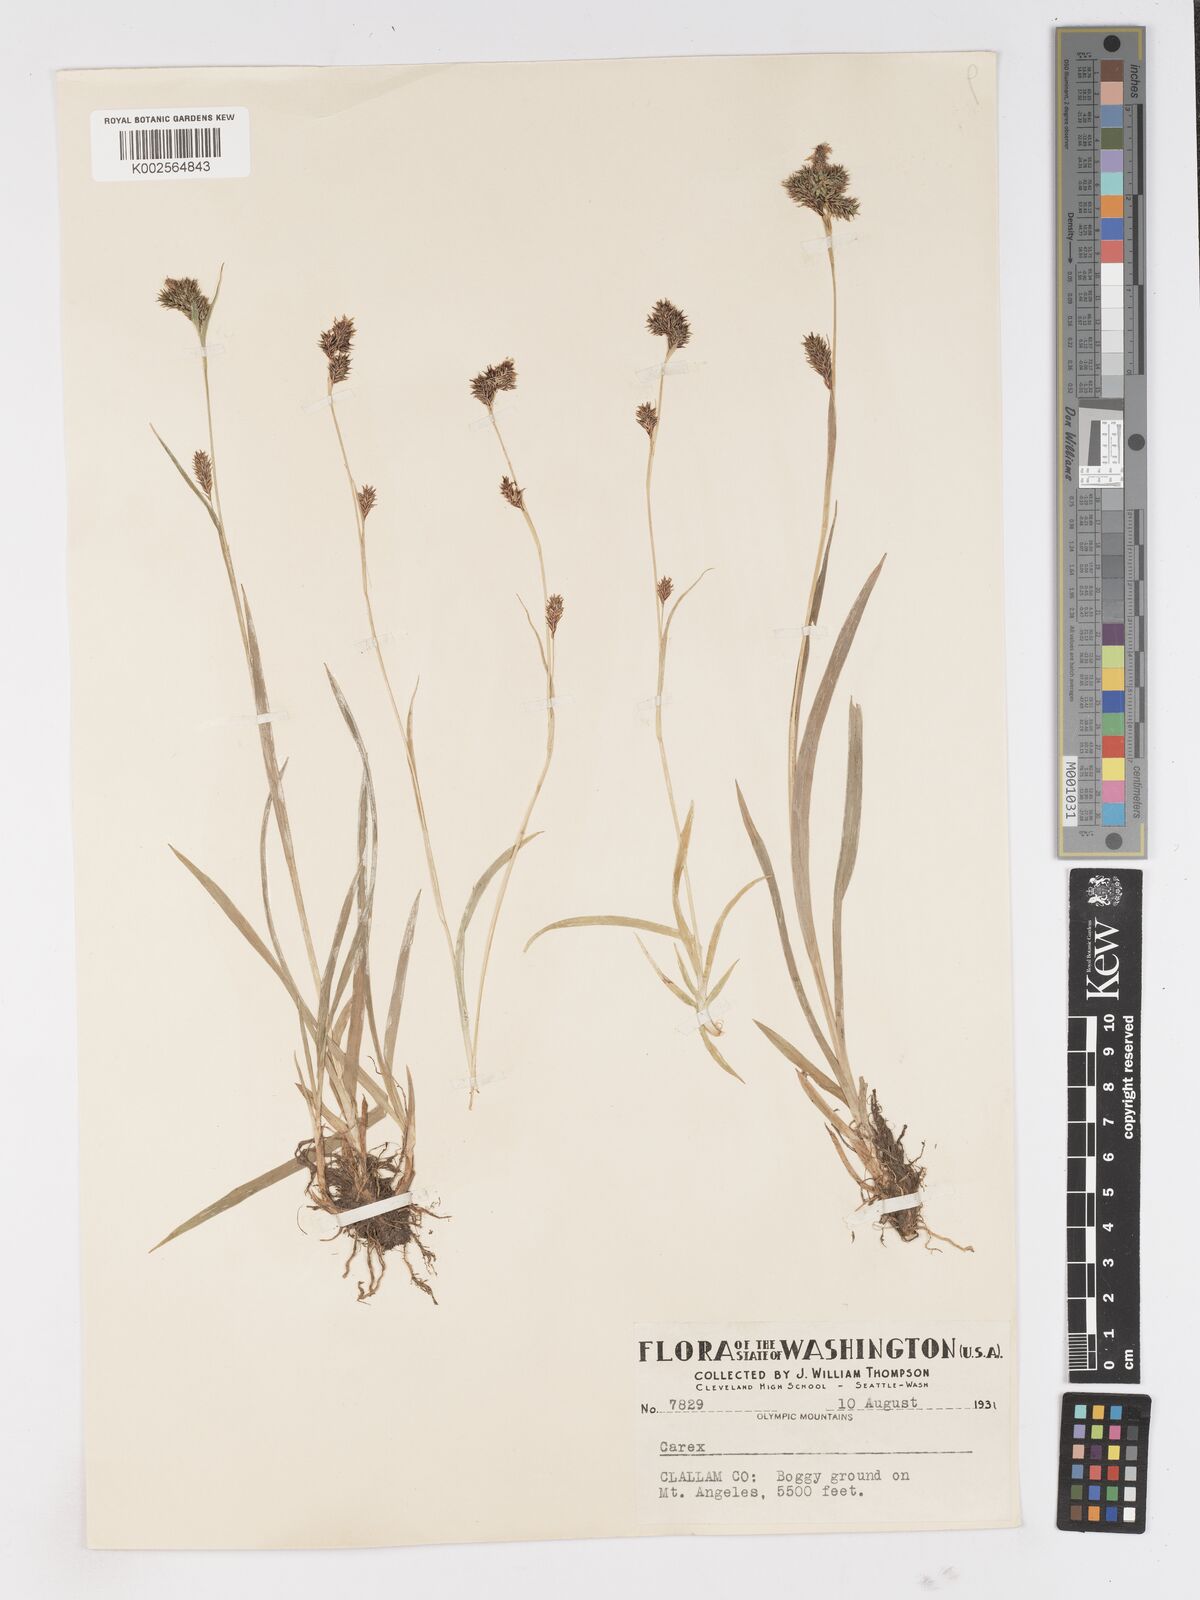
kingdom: Plantae
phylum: Tracheophyta
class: Liliopsida
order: Poales
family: Cyperaceae
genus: Carex
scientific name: Carex
